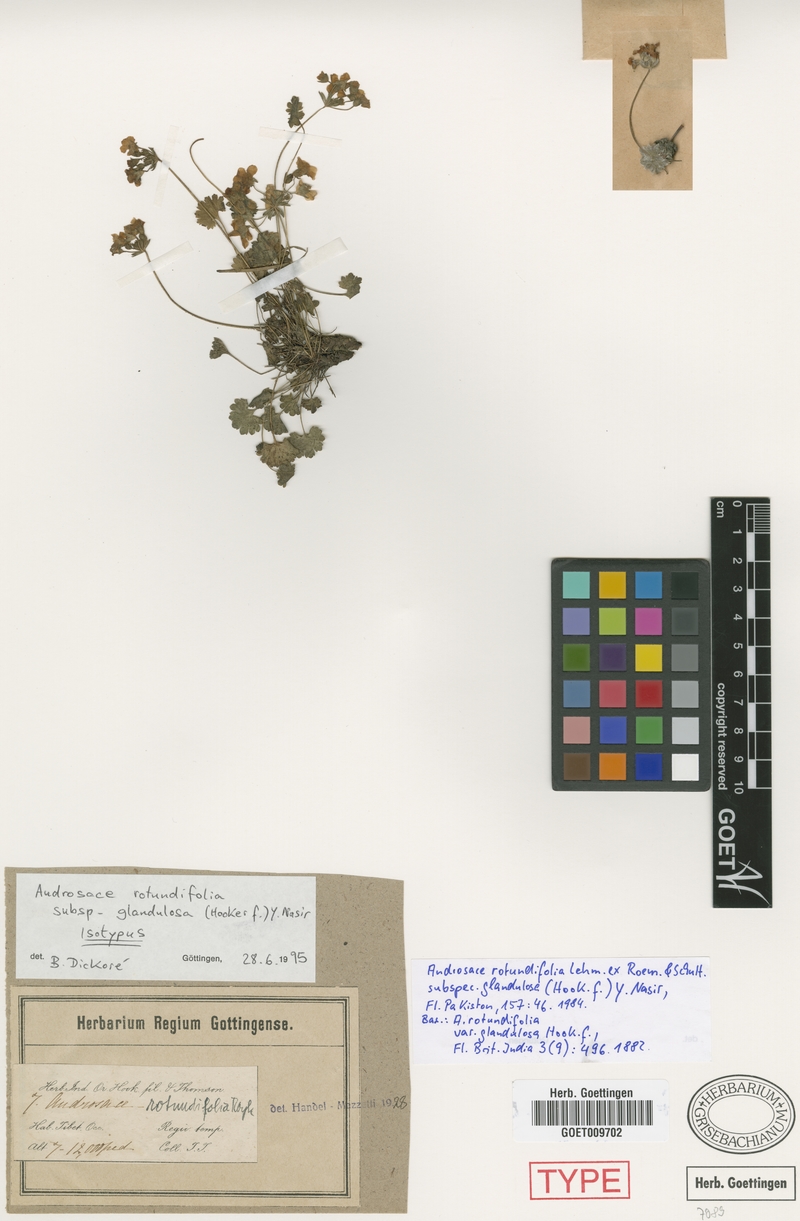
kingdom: Plantae
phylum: Tracheophyta
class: Magnoliopsida
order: Ericales
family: Primulaceae
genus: Androsace
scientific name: Androsace umbellata
